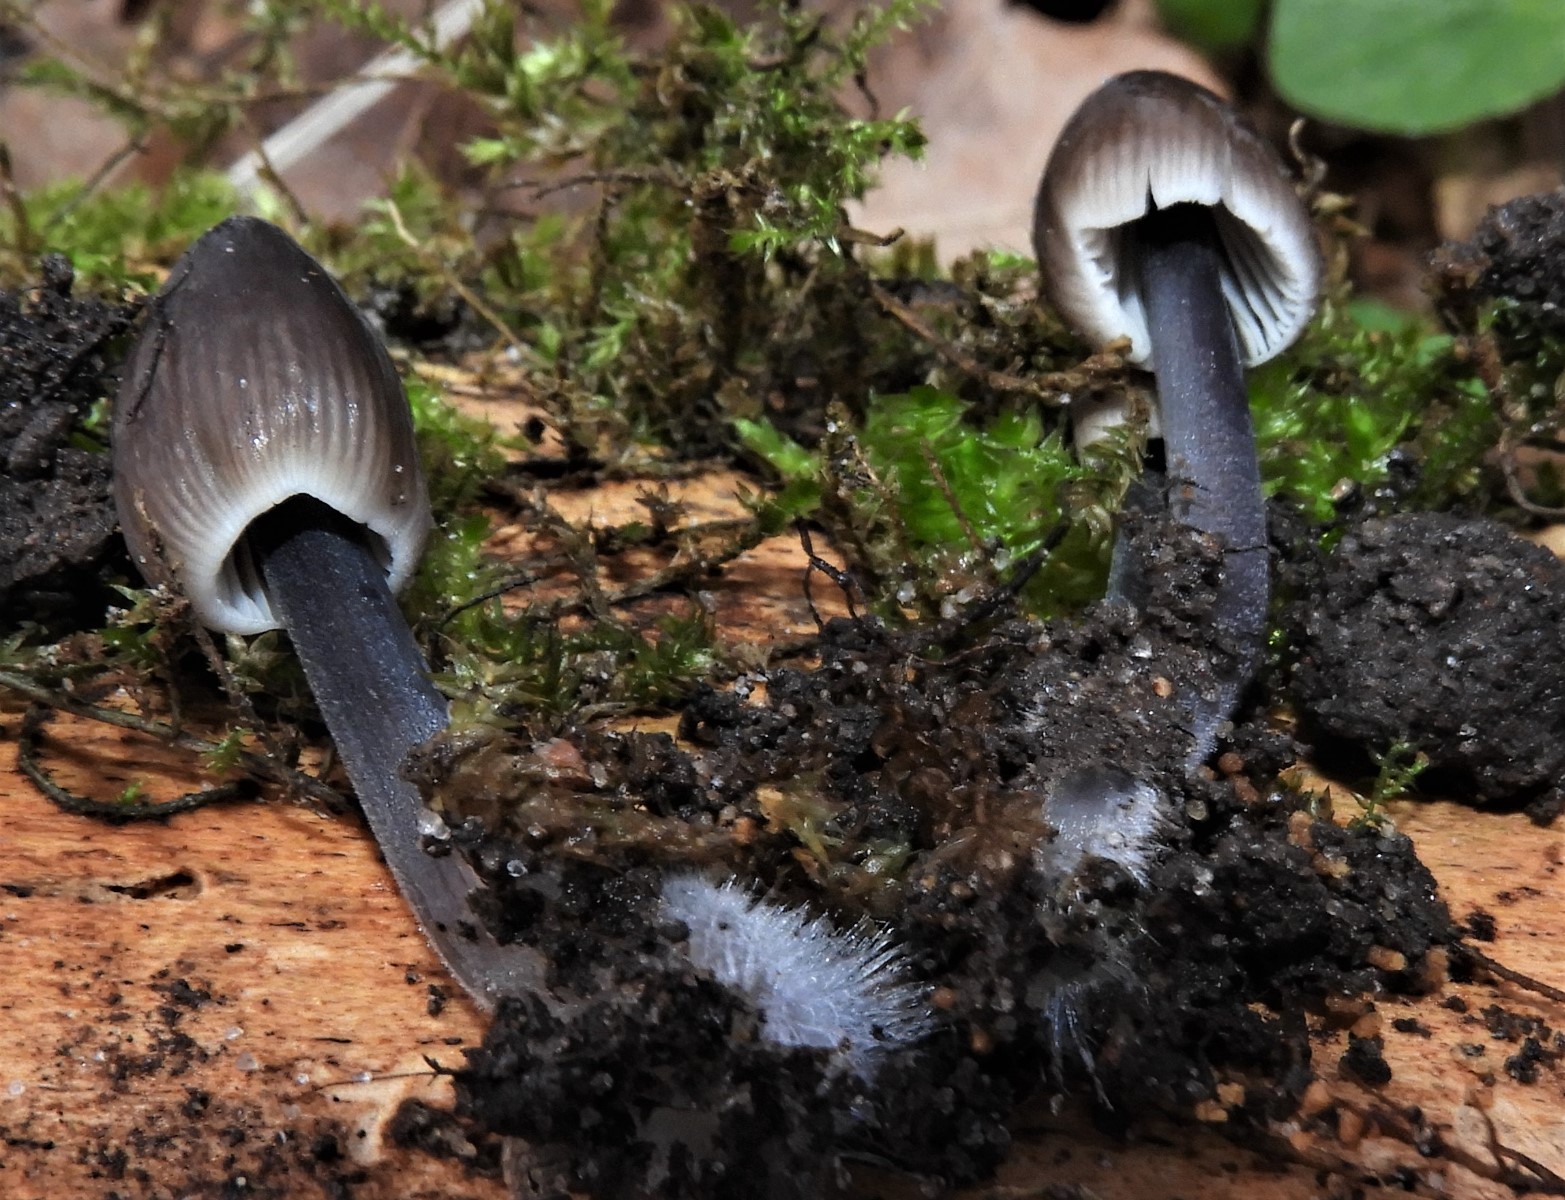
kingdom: Fungi
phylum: Basidiomycota
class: Agaricomycetes
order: Agaricales
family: Mycenaceae
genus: Mycena
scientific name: Mycena
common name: huesvamp
